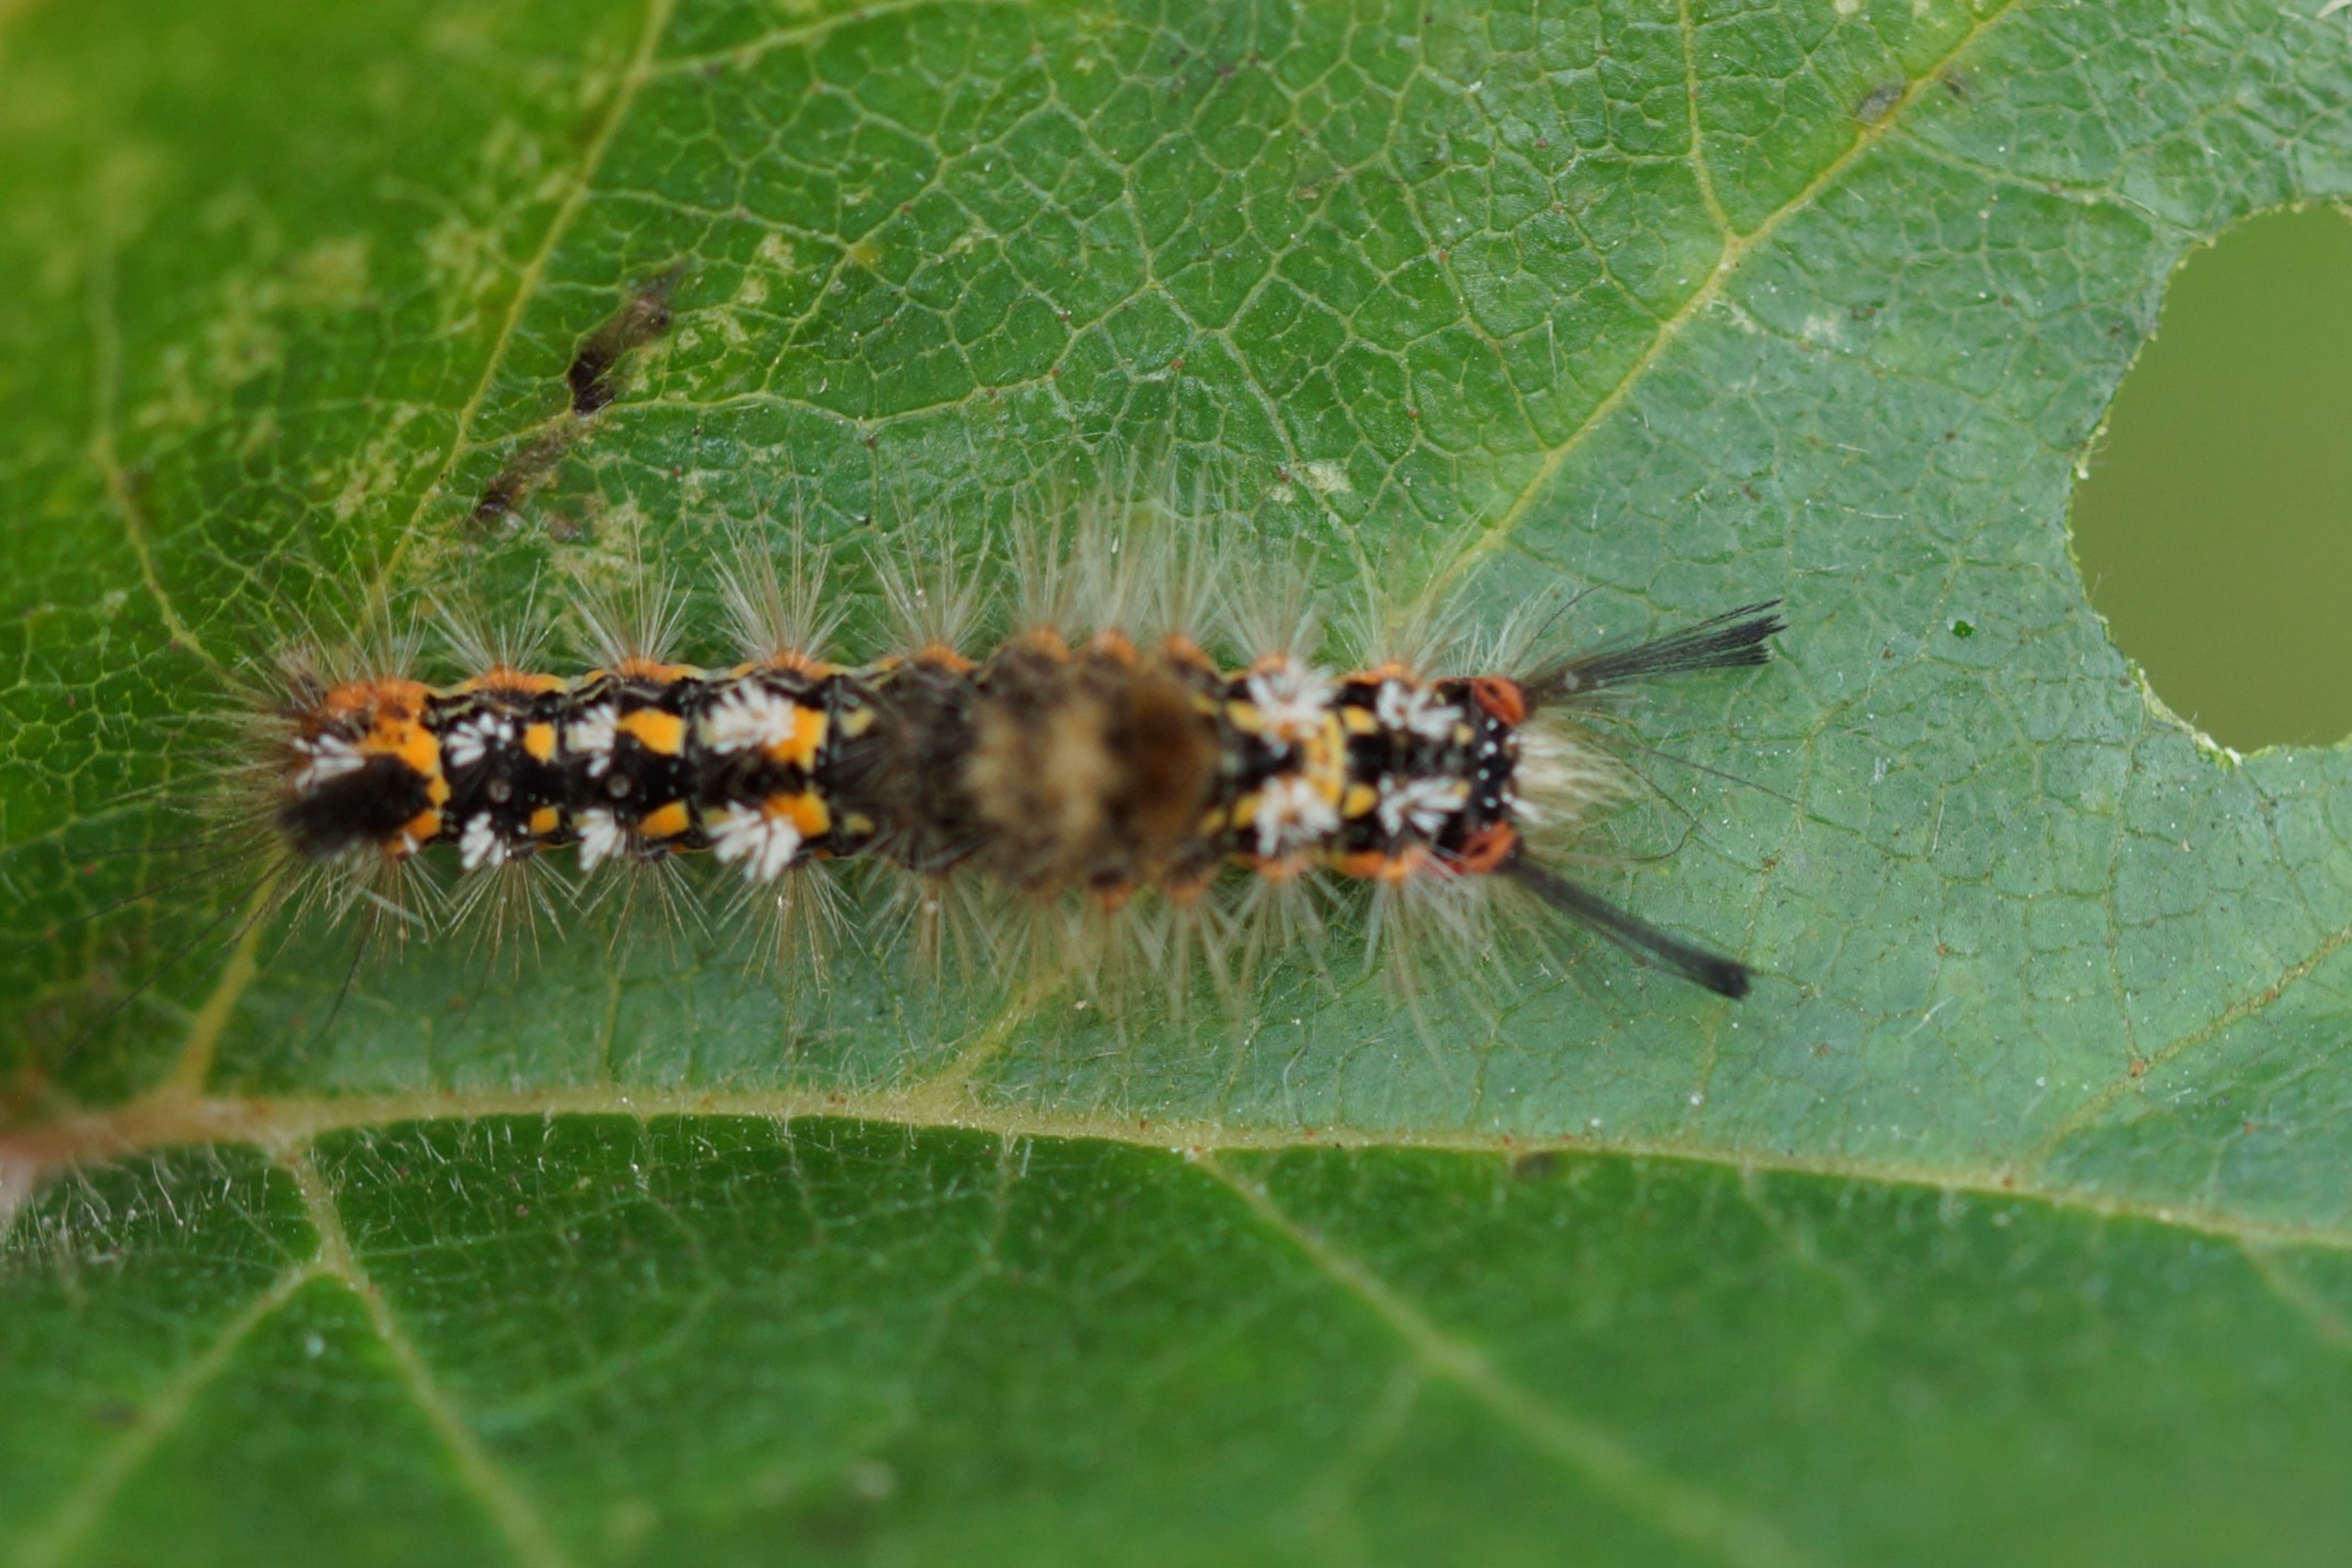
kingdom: Animalia
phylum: Arthropoda
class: Insecta
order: Lepidoptera
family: Erebidae
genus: Orgyia
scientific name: Orgyia recens
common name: Pragtpenselspinder
